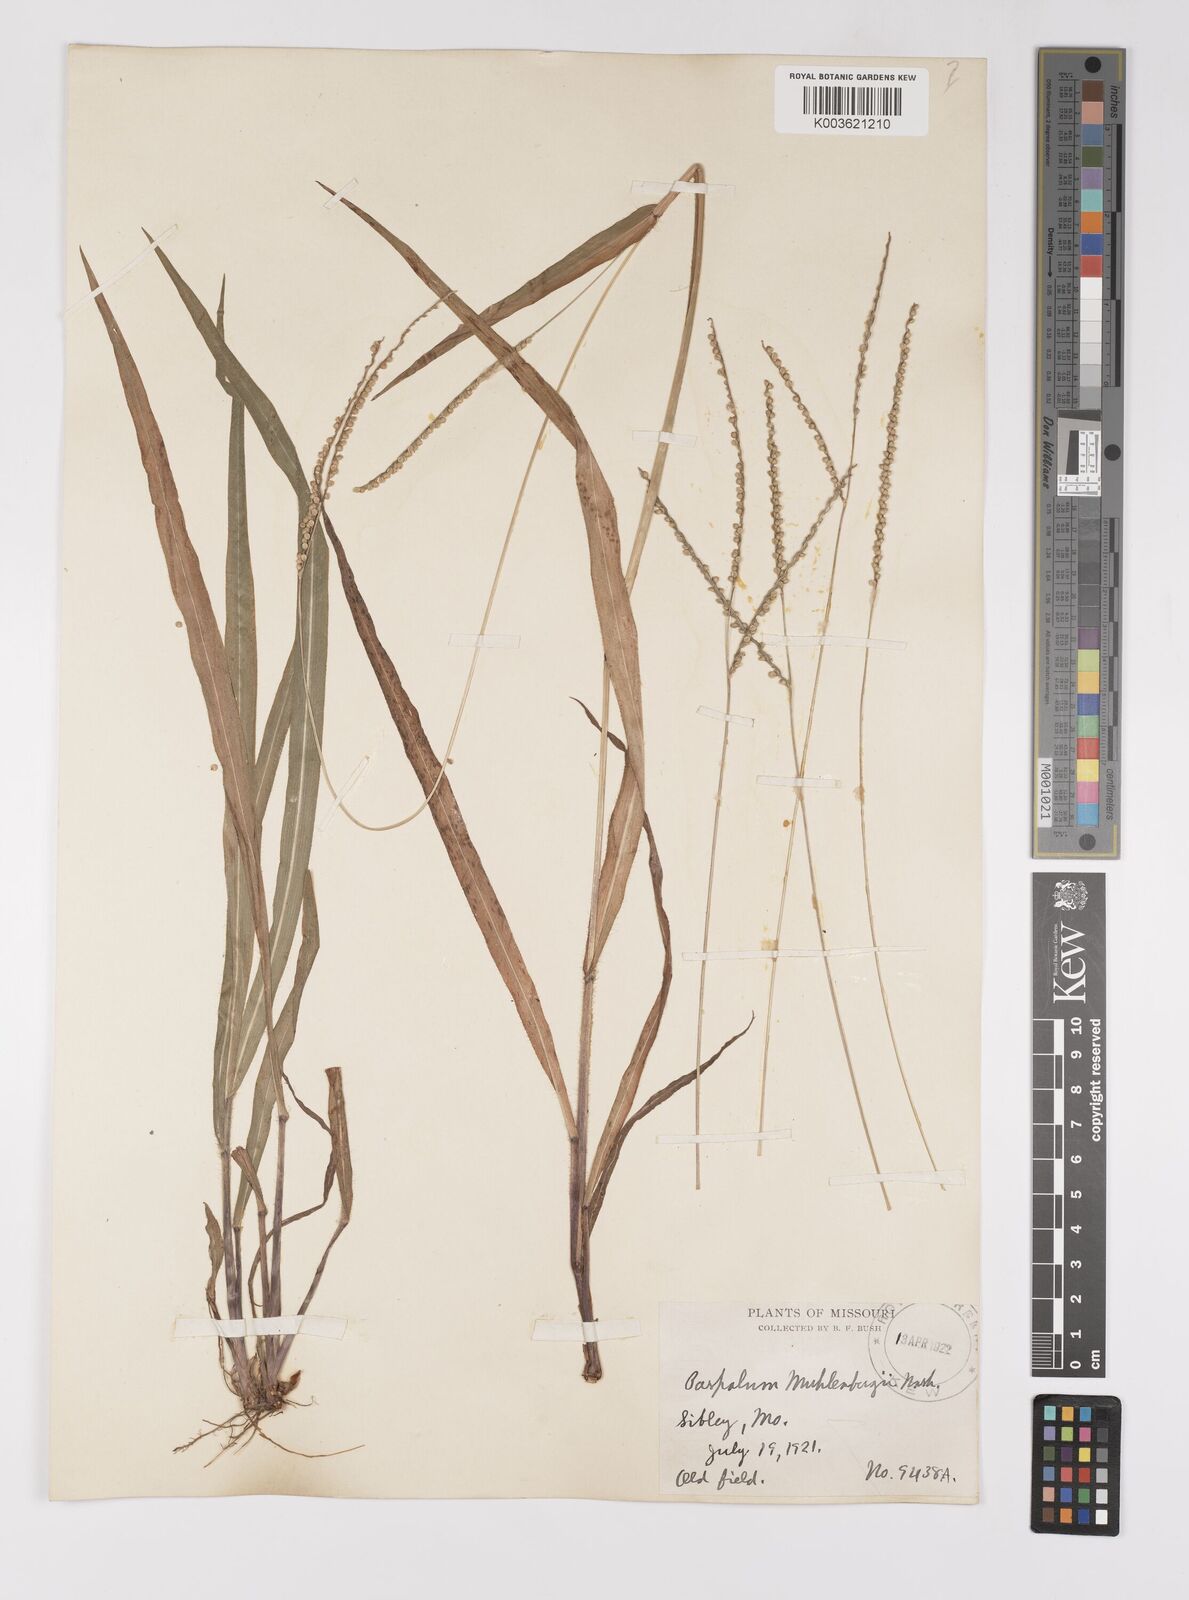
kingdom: Plantae
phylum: Tracheophyta
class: Liliopsida
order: Poales
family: Poaceae
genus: Paspalum
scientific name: Paspalum setaceum
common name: Slender paspalum
